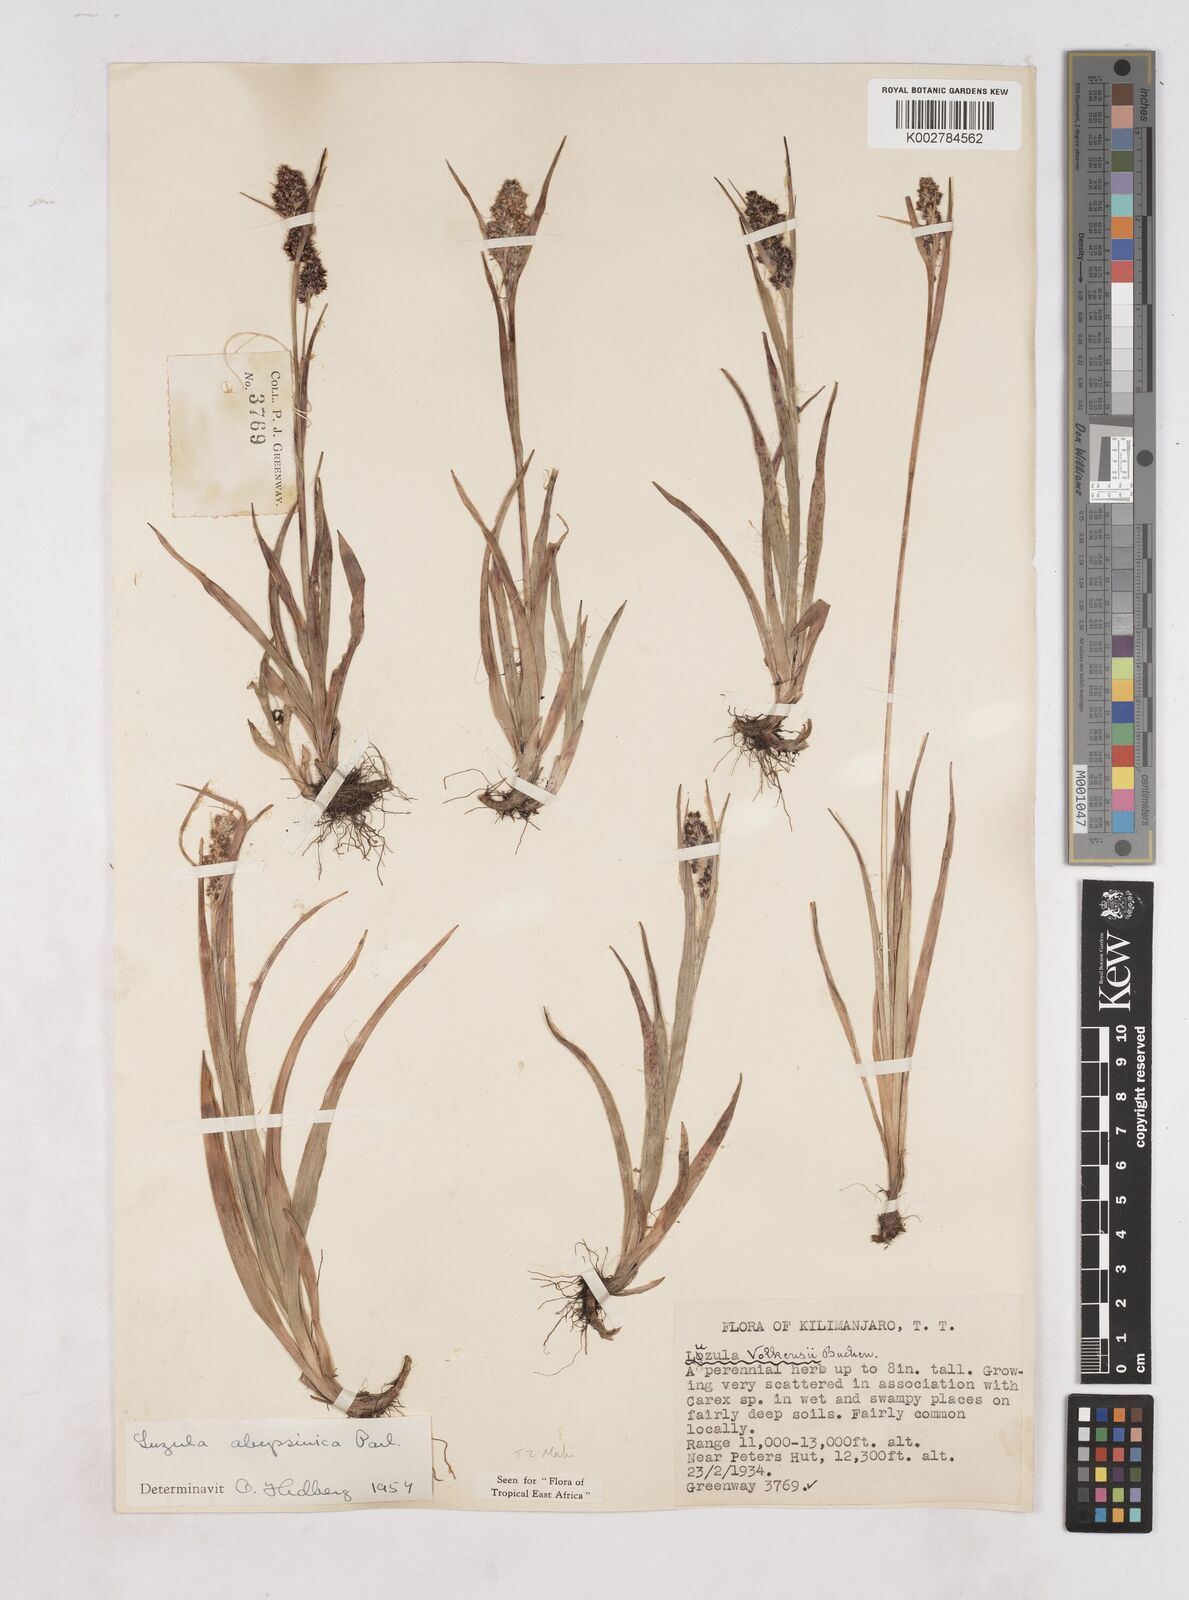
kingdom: Plantae
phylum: Tracheophyta
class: Liliopsida
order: Poales
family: Juncaceae
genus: Luzula
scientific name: Luzula abyssinica
